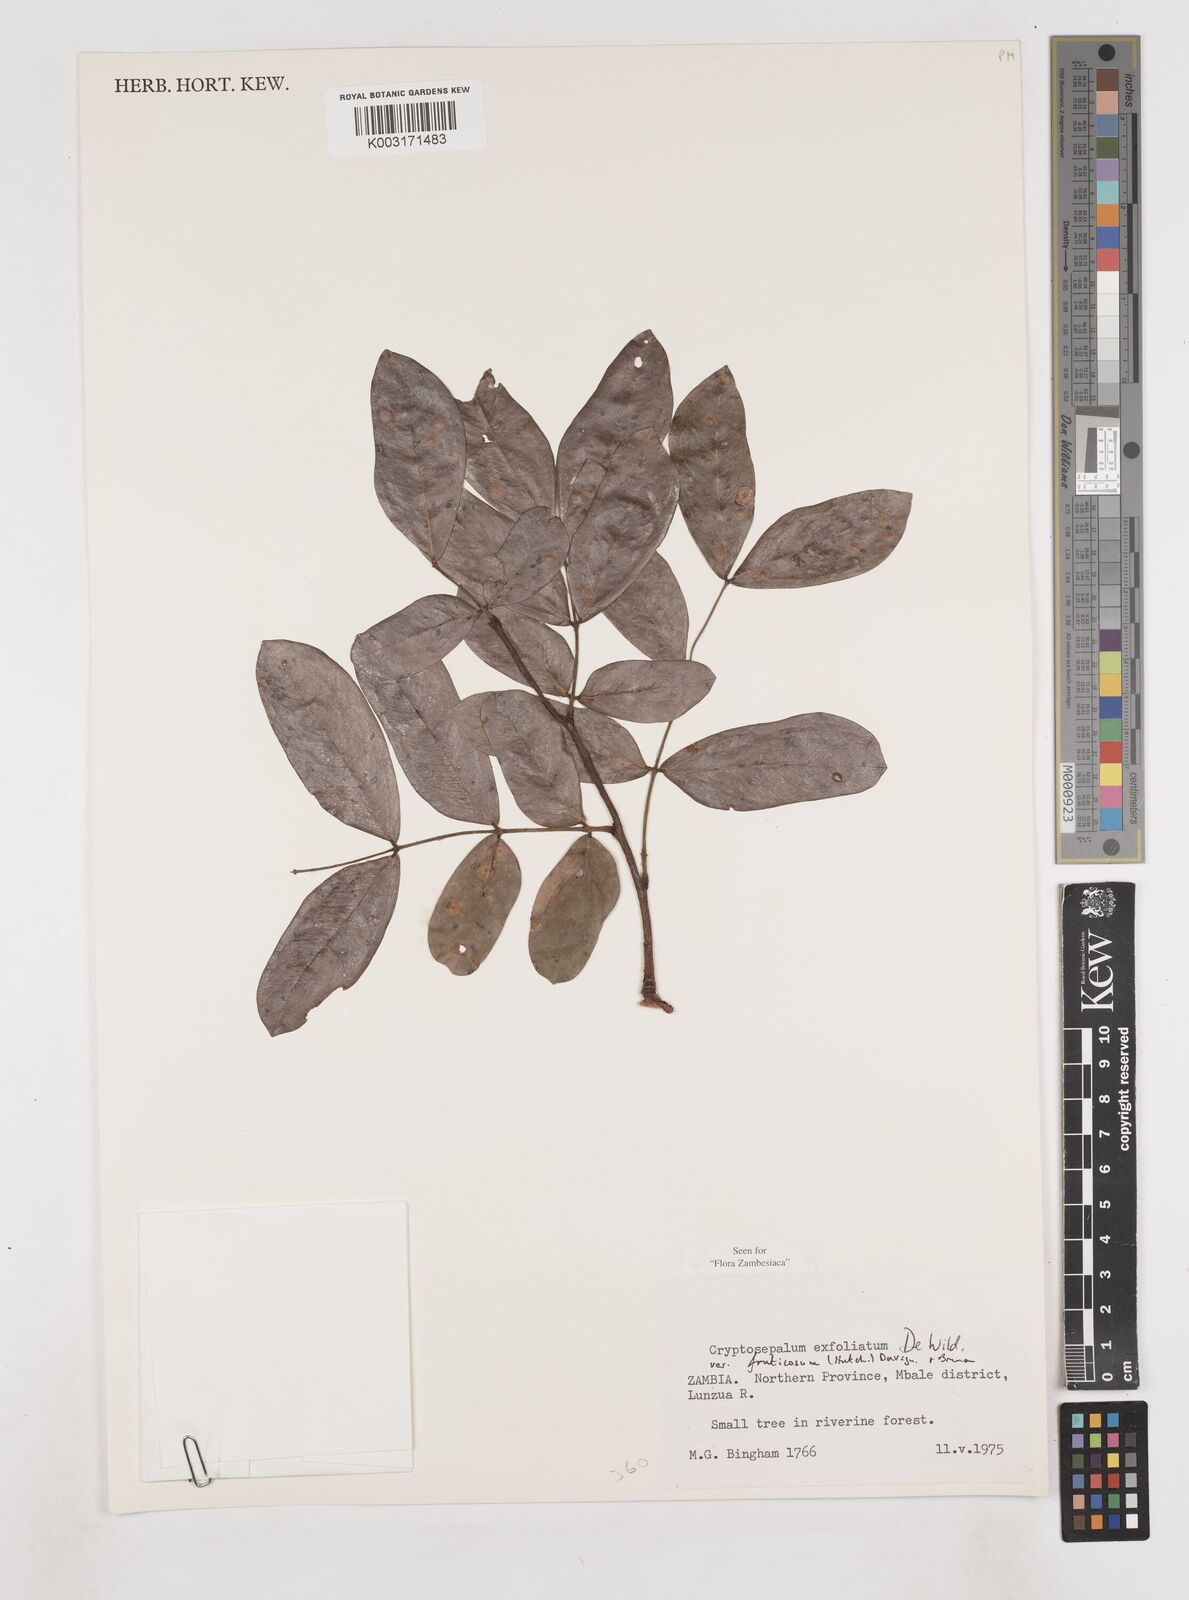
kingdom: Plantae
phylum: Tracheophyta
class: Magnoliopsida
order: Fabales
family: Fabaceae
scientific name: Fabaceae
